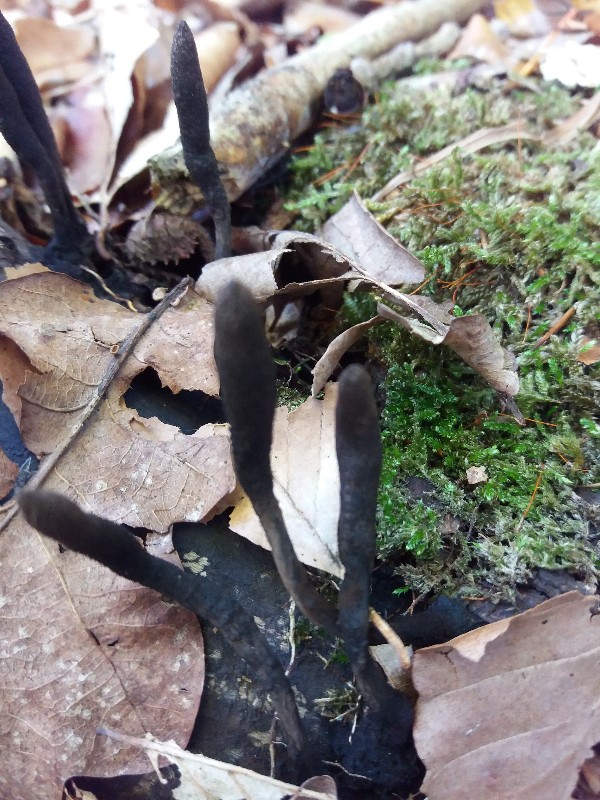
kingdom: Fungi
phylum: Ascomycota
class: Sordariomycetes
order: Xylariales
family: Xylariaceae
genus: Xylaria
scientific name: Xylaria longipes
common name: slank stødsvamp
